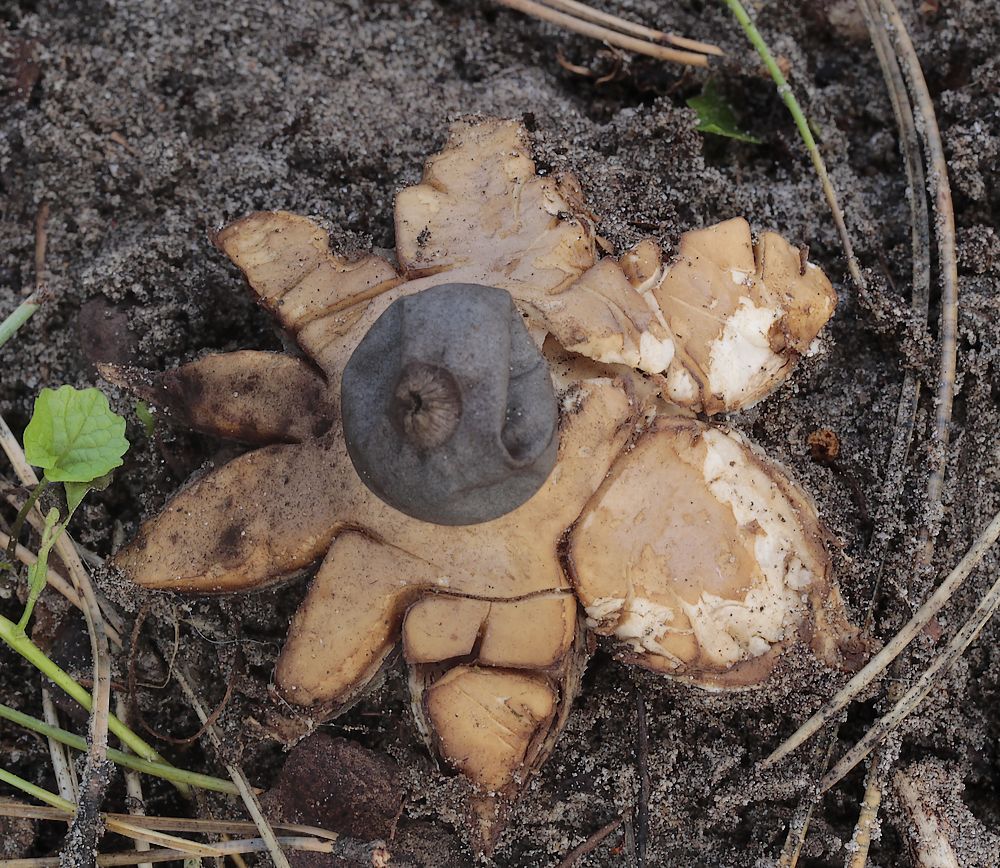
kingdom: Fungi
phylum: Basidiomycota
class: Agaricomycetes
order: Geastrales
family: Geastraceae
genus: Geastrum
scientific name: Geastrum coronatum
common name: mørk stjernebold
